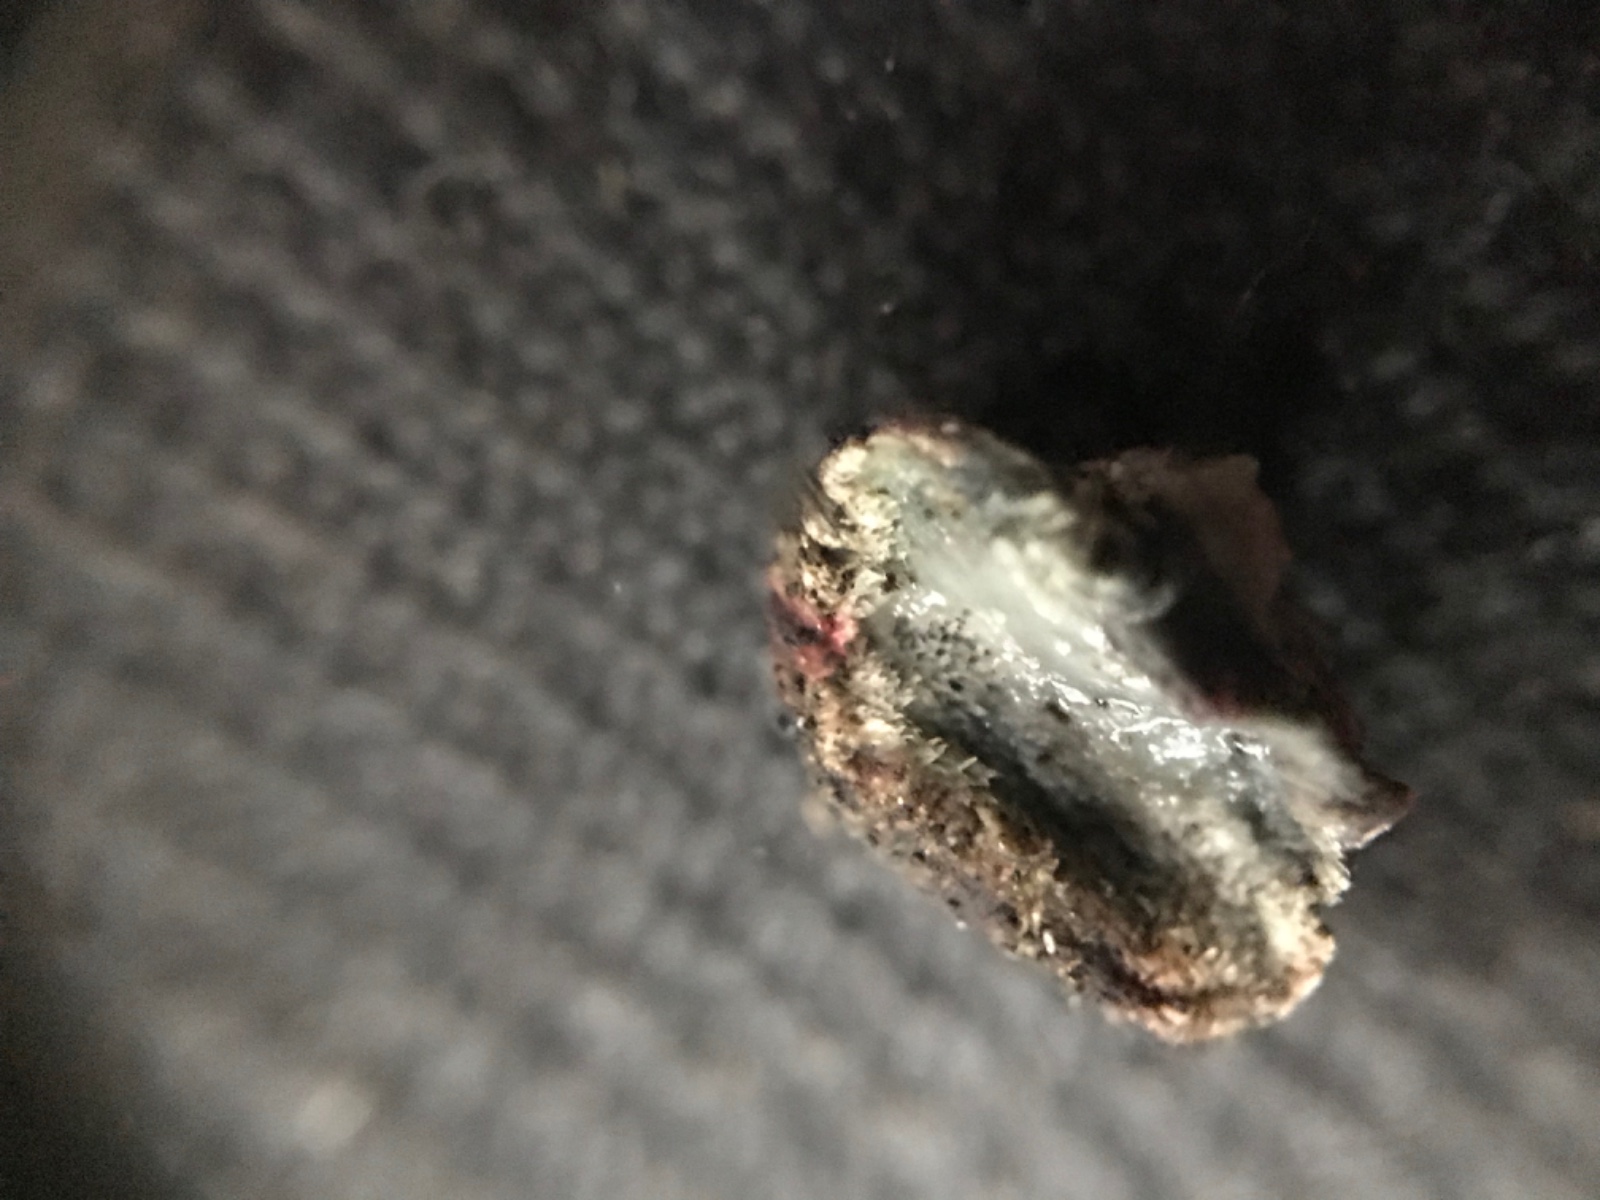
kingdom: Fungi
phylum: Basidiomycota
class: Agaricomycetes
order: Auriculariales
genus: Pseudohydnum
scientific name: Pseudohydnum gelatinosum
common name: bævretand
